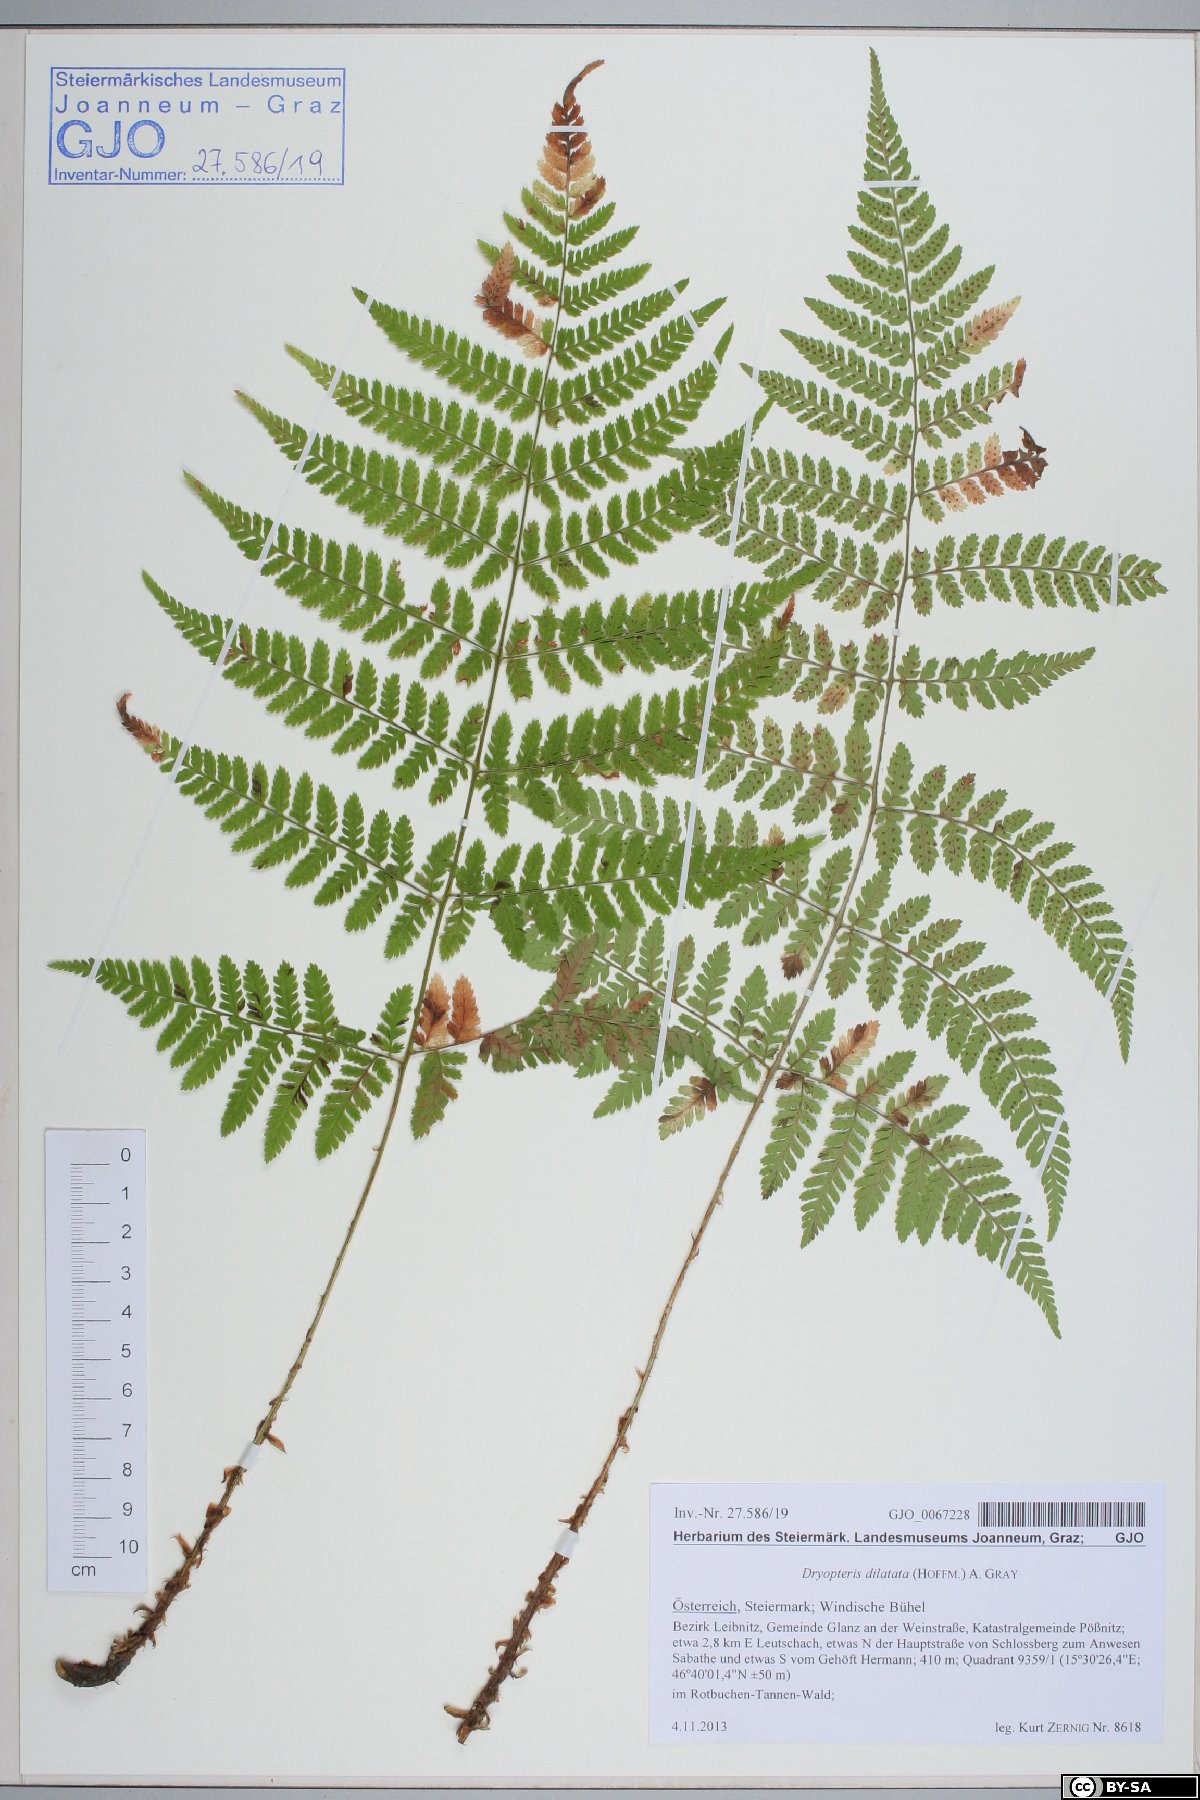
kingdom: Plantae
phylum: Tracheophyta
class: Polypodiopsida
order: Polypodiales
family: Dryopteridaceae
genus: Dryopteris
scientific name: Dryopteris dilatata
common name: Broad buckler-fern
